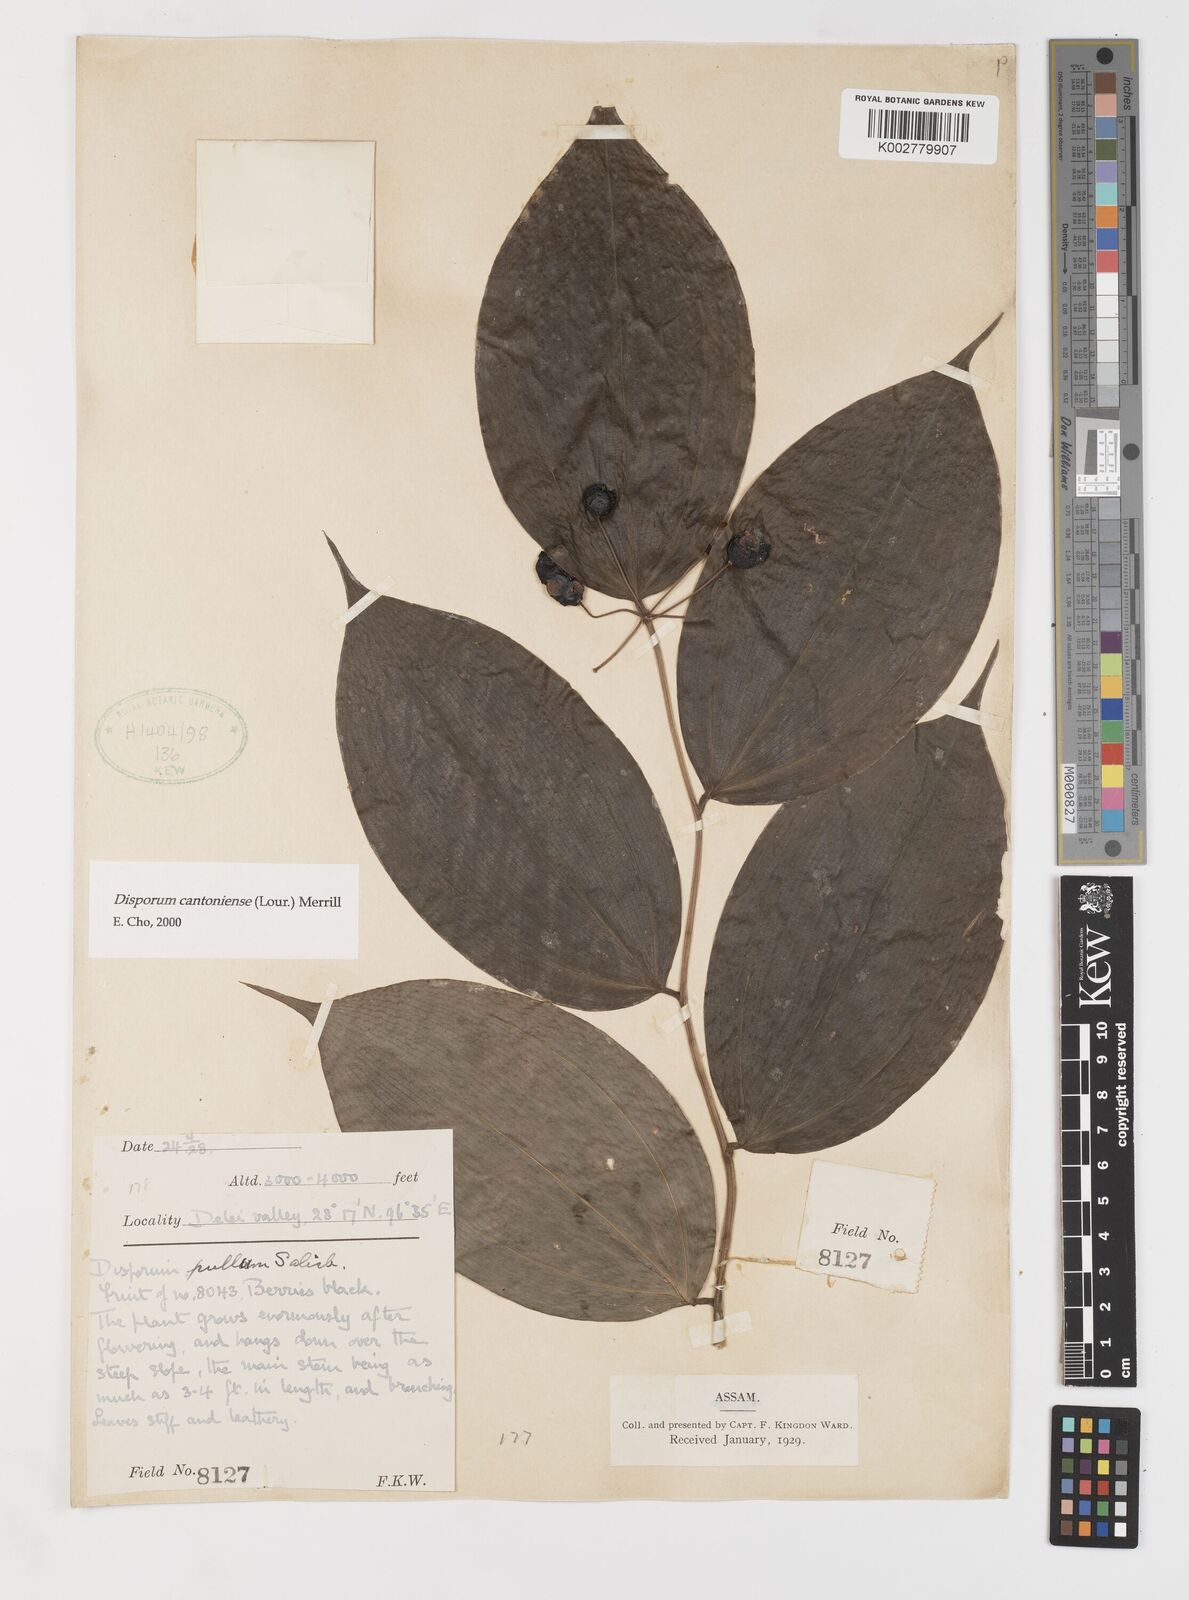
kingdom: Plantae
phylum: Tracheophyta
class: Liliopsida
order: Liliales
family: Colchicaceae
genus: Disporum
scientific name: Disporum cantoniense
